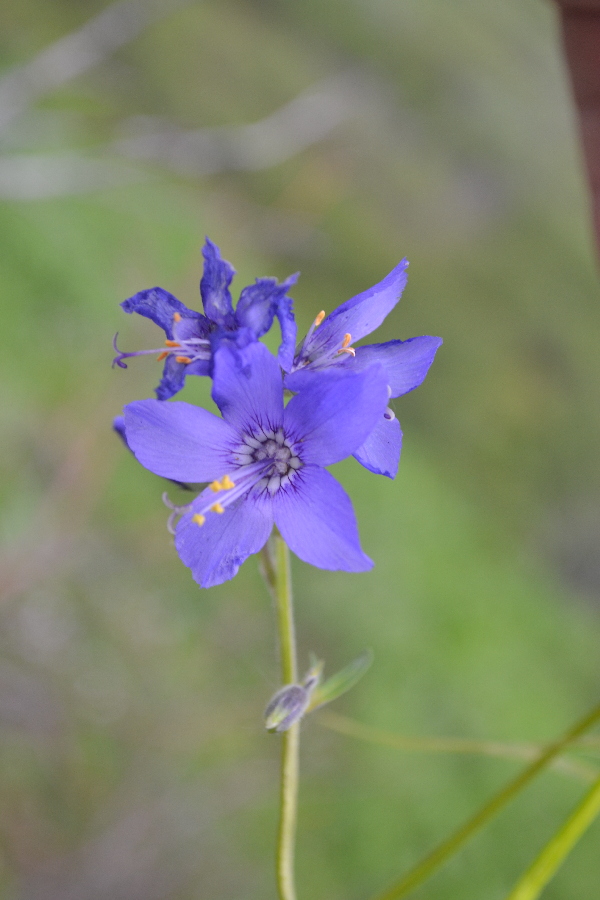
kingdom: Plantae
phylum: Tracheophyta
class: Magnoliopsida
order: Ericales
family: Polemoniaceae
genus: Polemonium
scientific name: Polemonium acutiflorum
